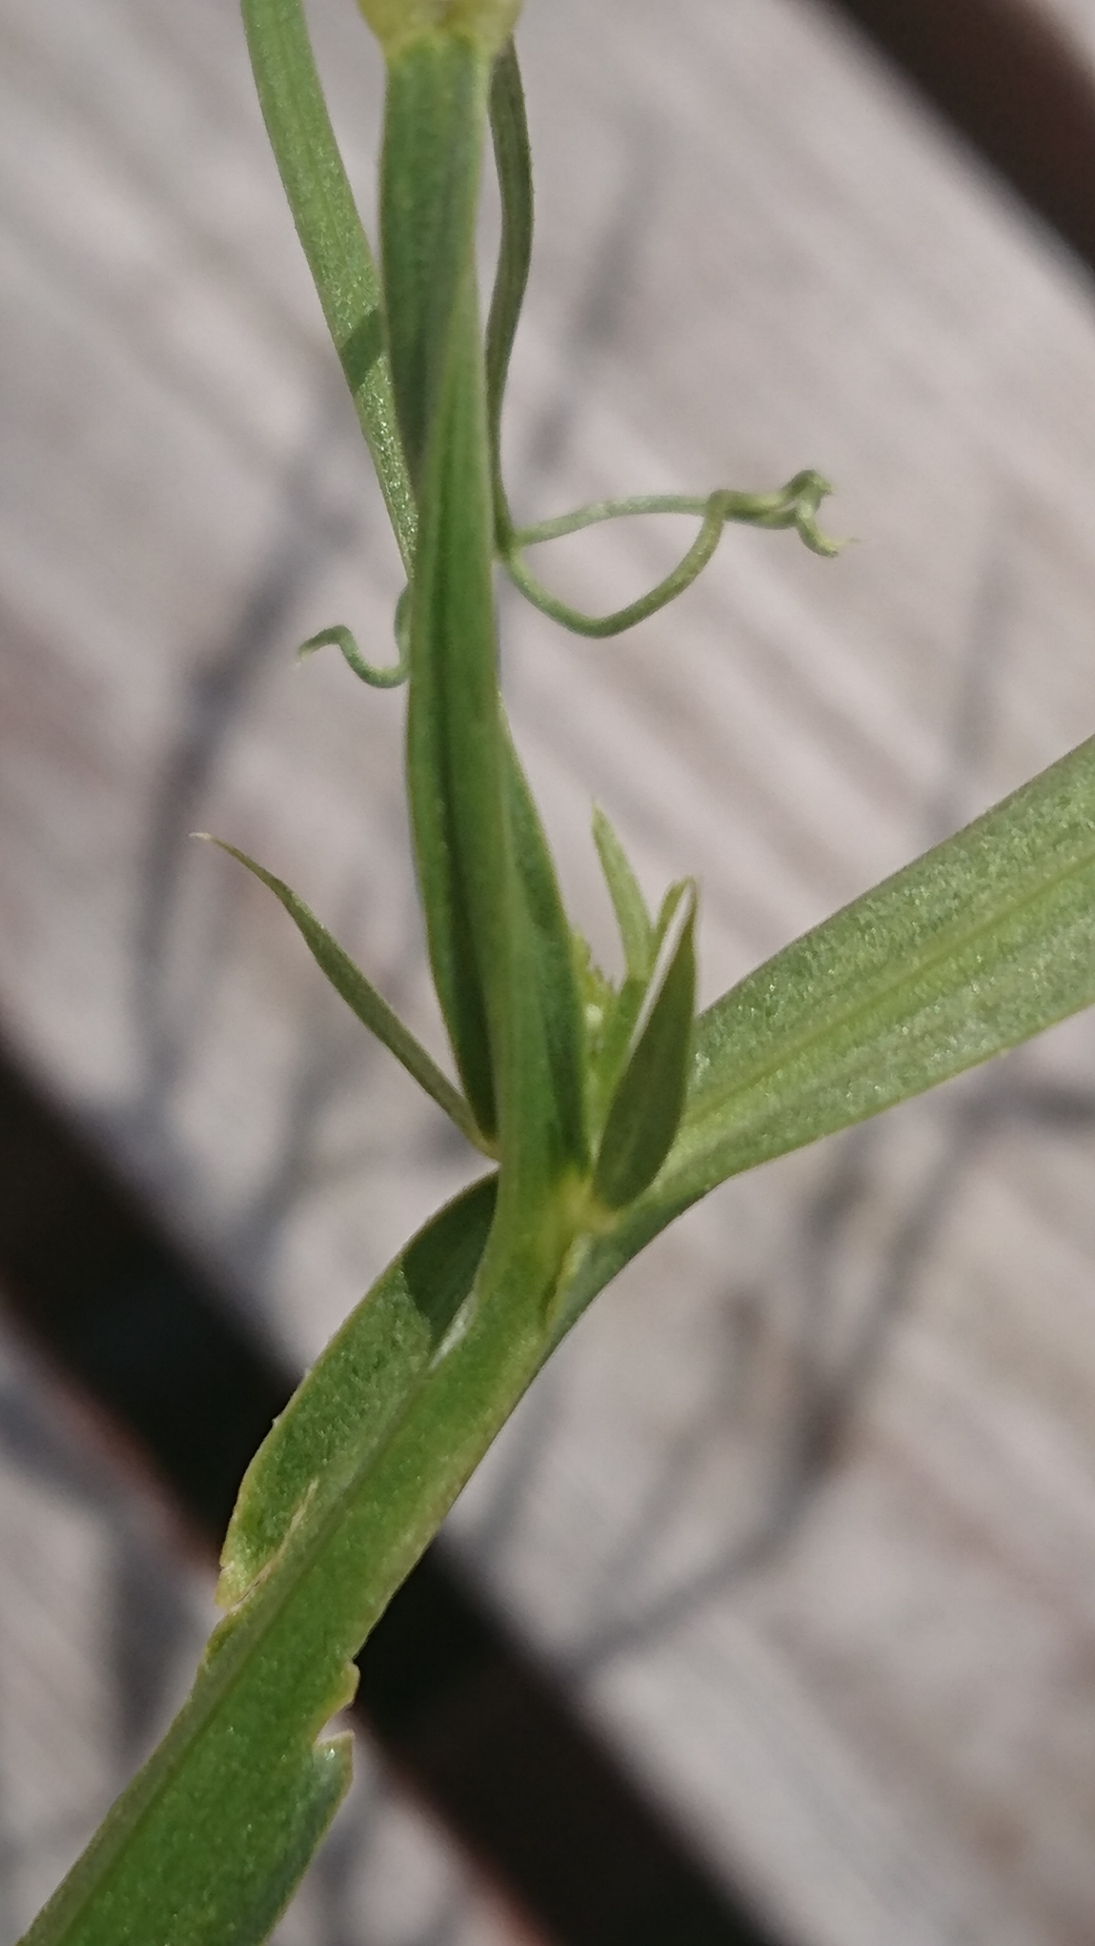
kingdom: Plantae
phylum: Tracheophyta
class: Magnoliopsida
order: Fabales
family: Fabaceae
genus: Lathyrus
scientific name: Lathyrus sylvestris
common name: Skov-fladbælg
